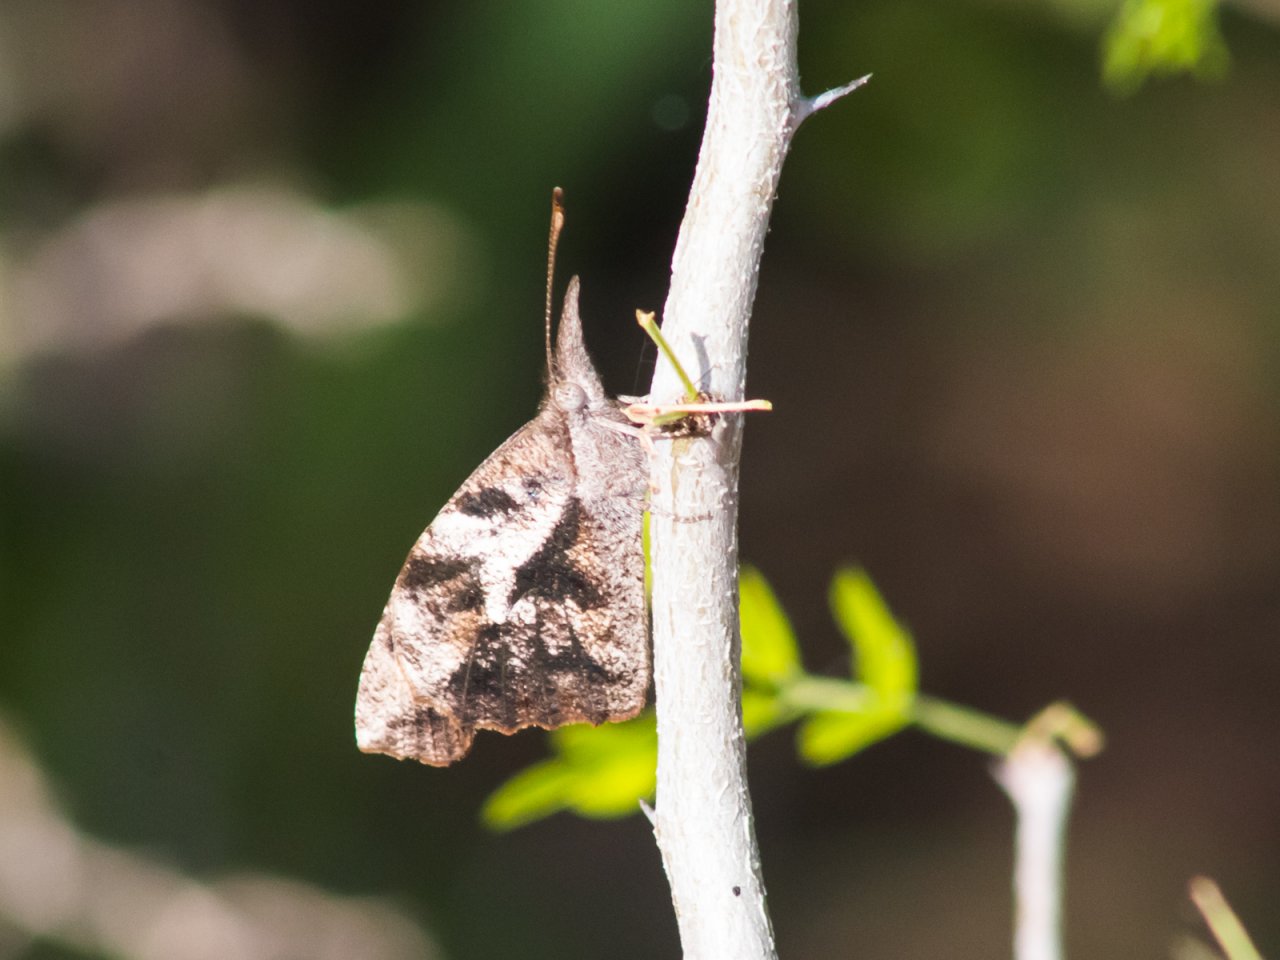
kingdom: Animalia
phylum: Arthropoda
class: Insecta
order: Lepidoptera
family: Nymphalidae
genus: Libytheana
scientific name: Libytheana carinenta
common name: American Snout
